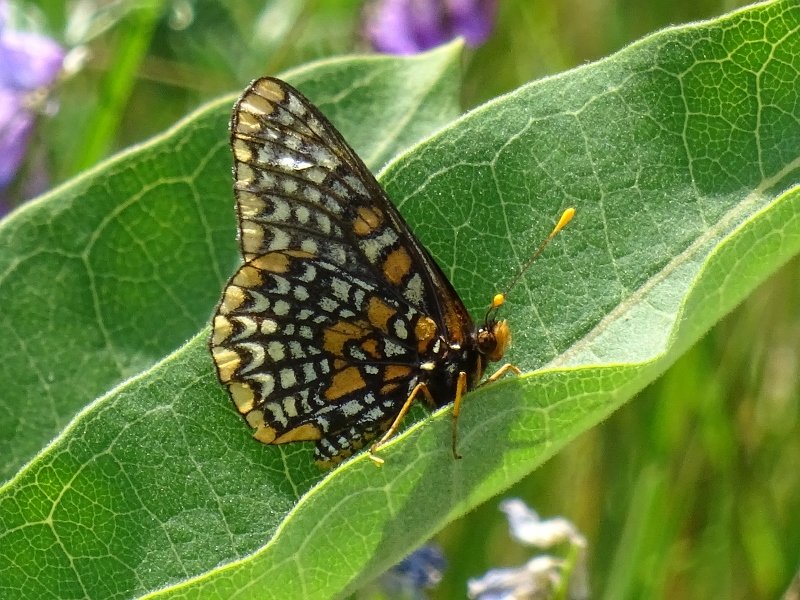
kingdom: Animalia
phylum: Arthropoda
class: Insecta
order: Lepidoptera
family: Nymphalidae
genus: Euphydryas
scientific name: Euphydryas phaeton
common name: Baltimore Checkerspot
